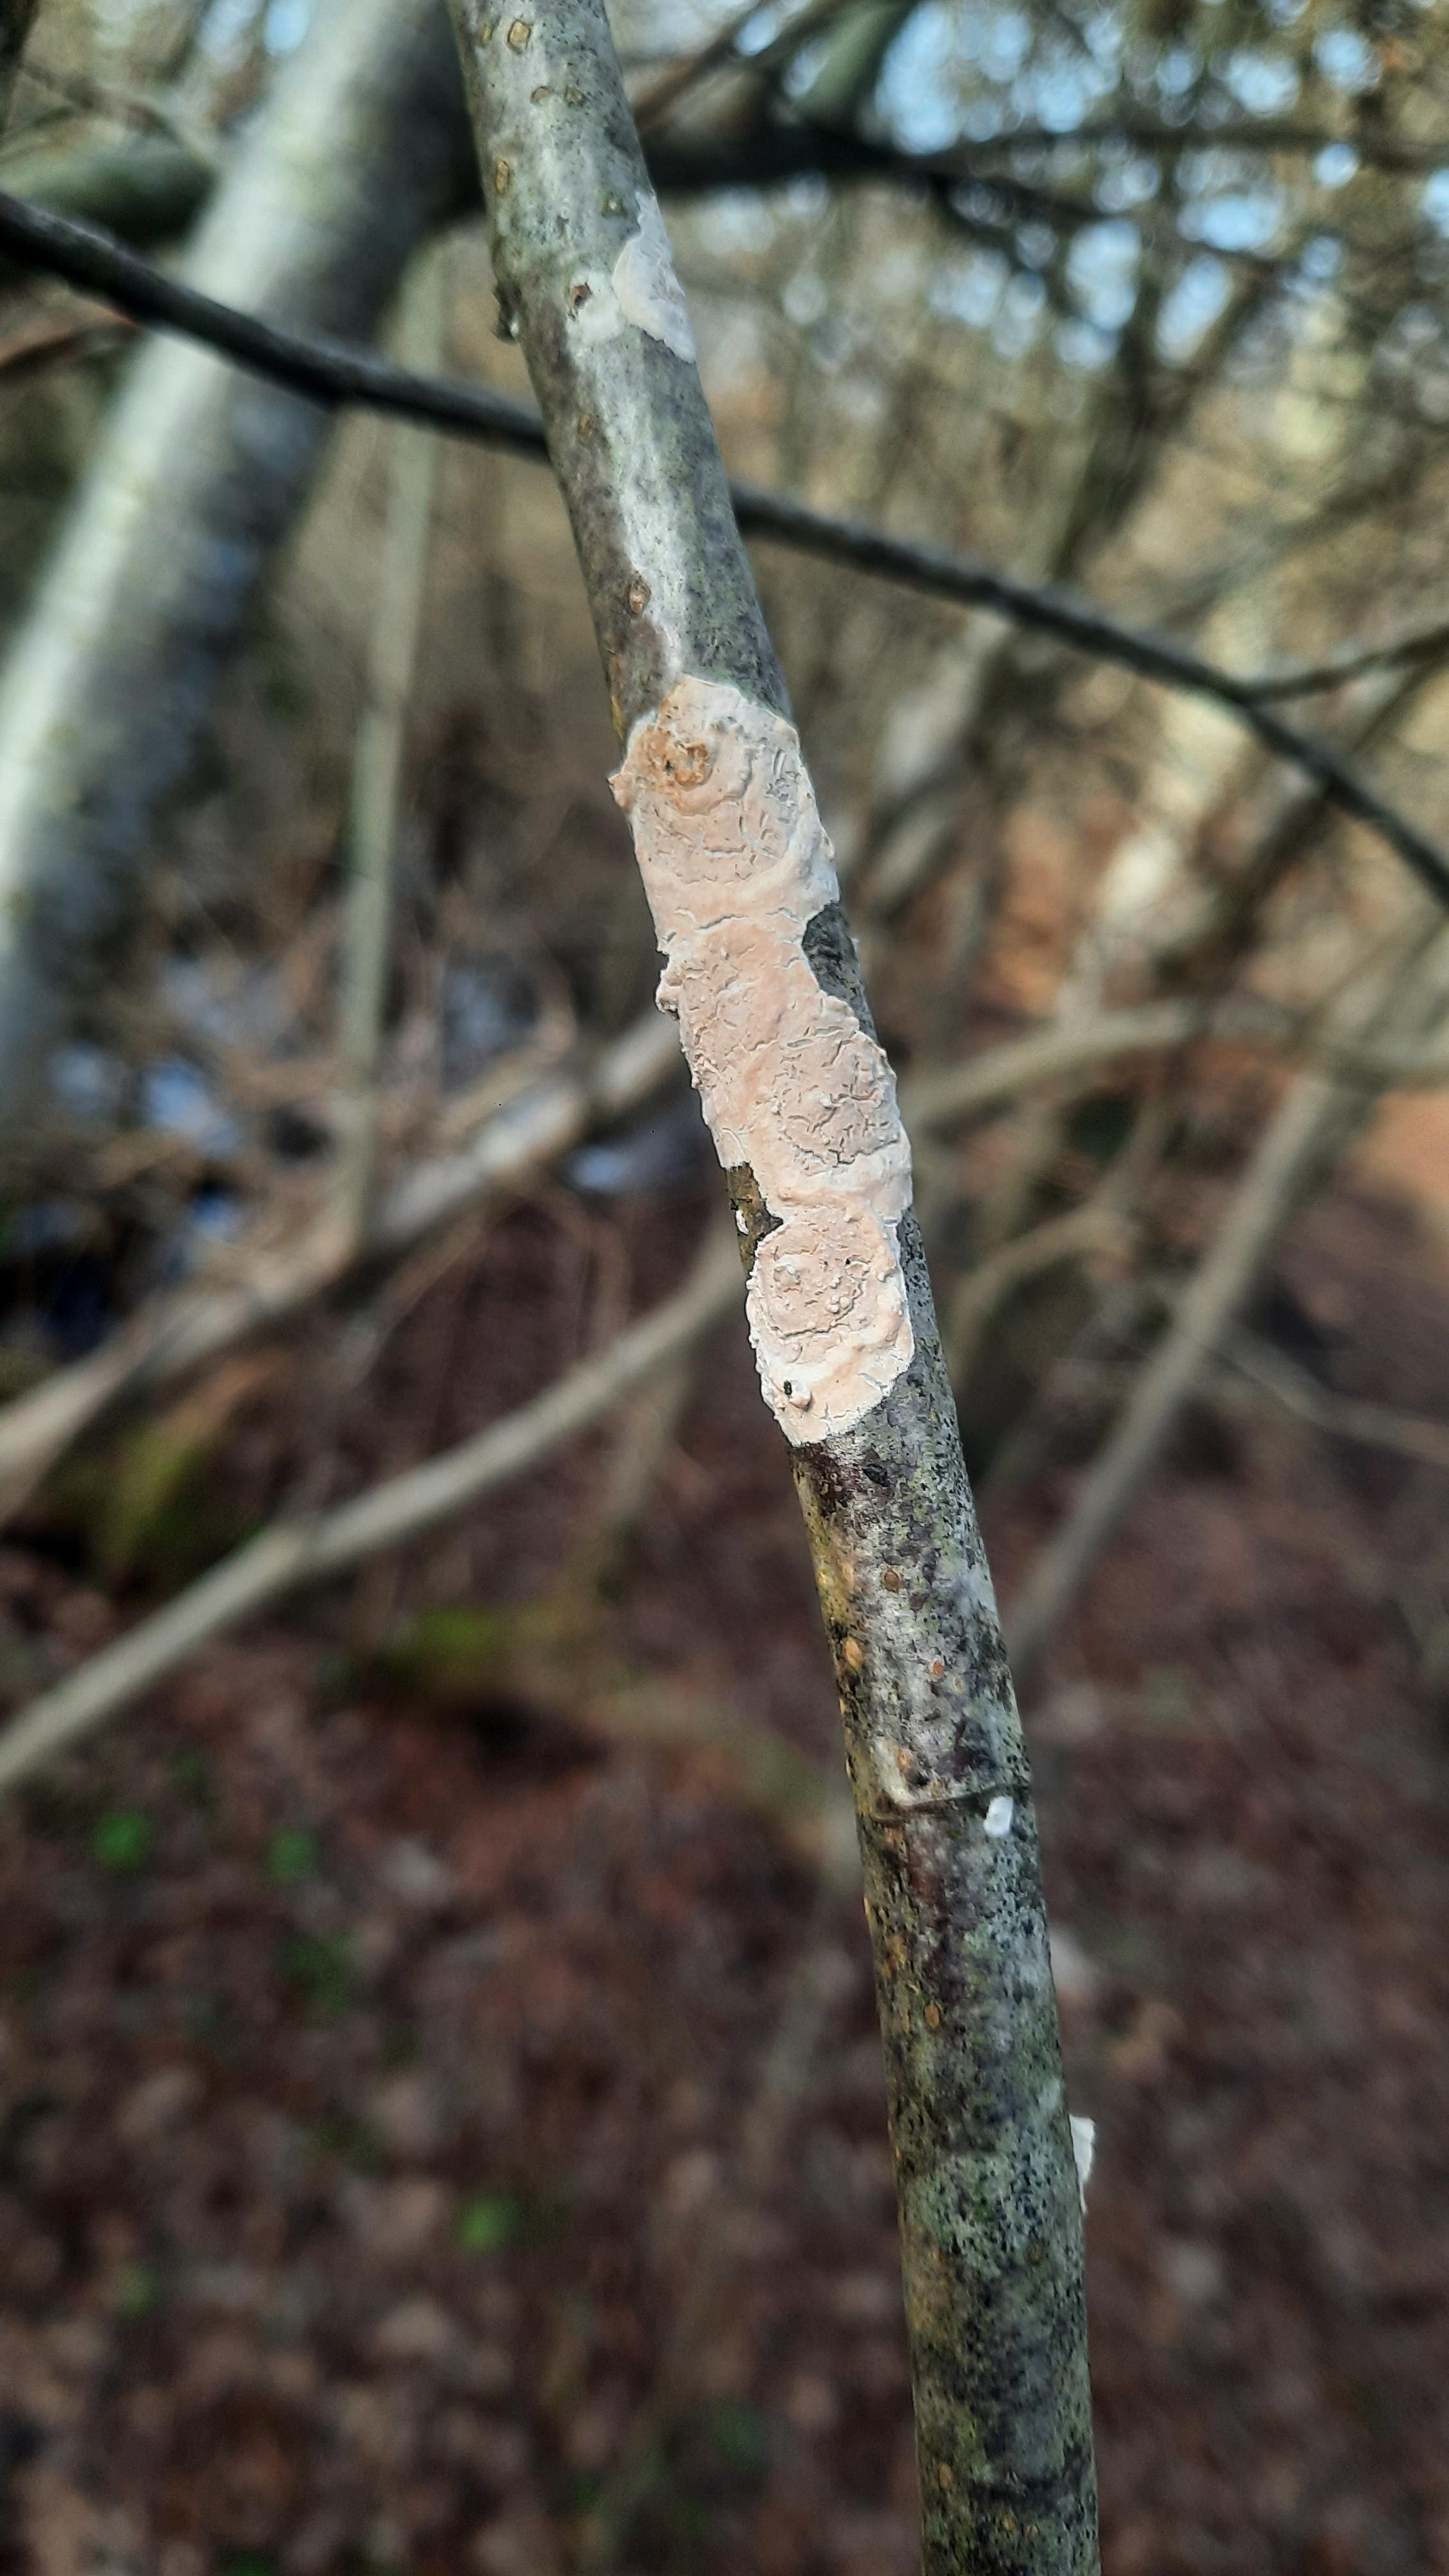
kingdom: Fungi
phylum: Basidiomycota
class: Agaricomycetes
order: Polyporales
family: Irpicaceae
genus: Byssomerulius
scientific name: Byssomerulius corium
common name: læder-åresvamp
